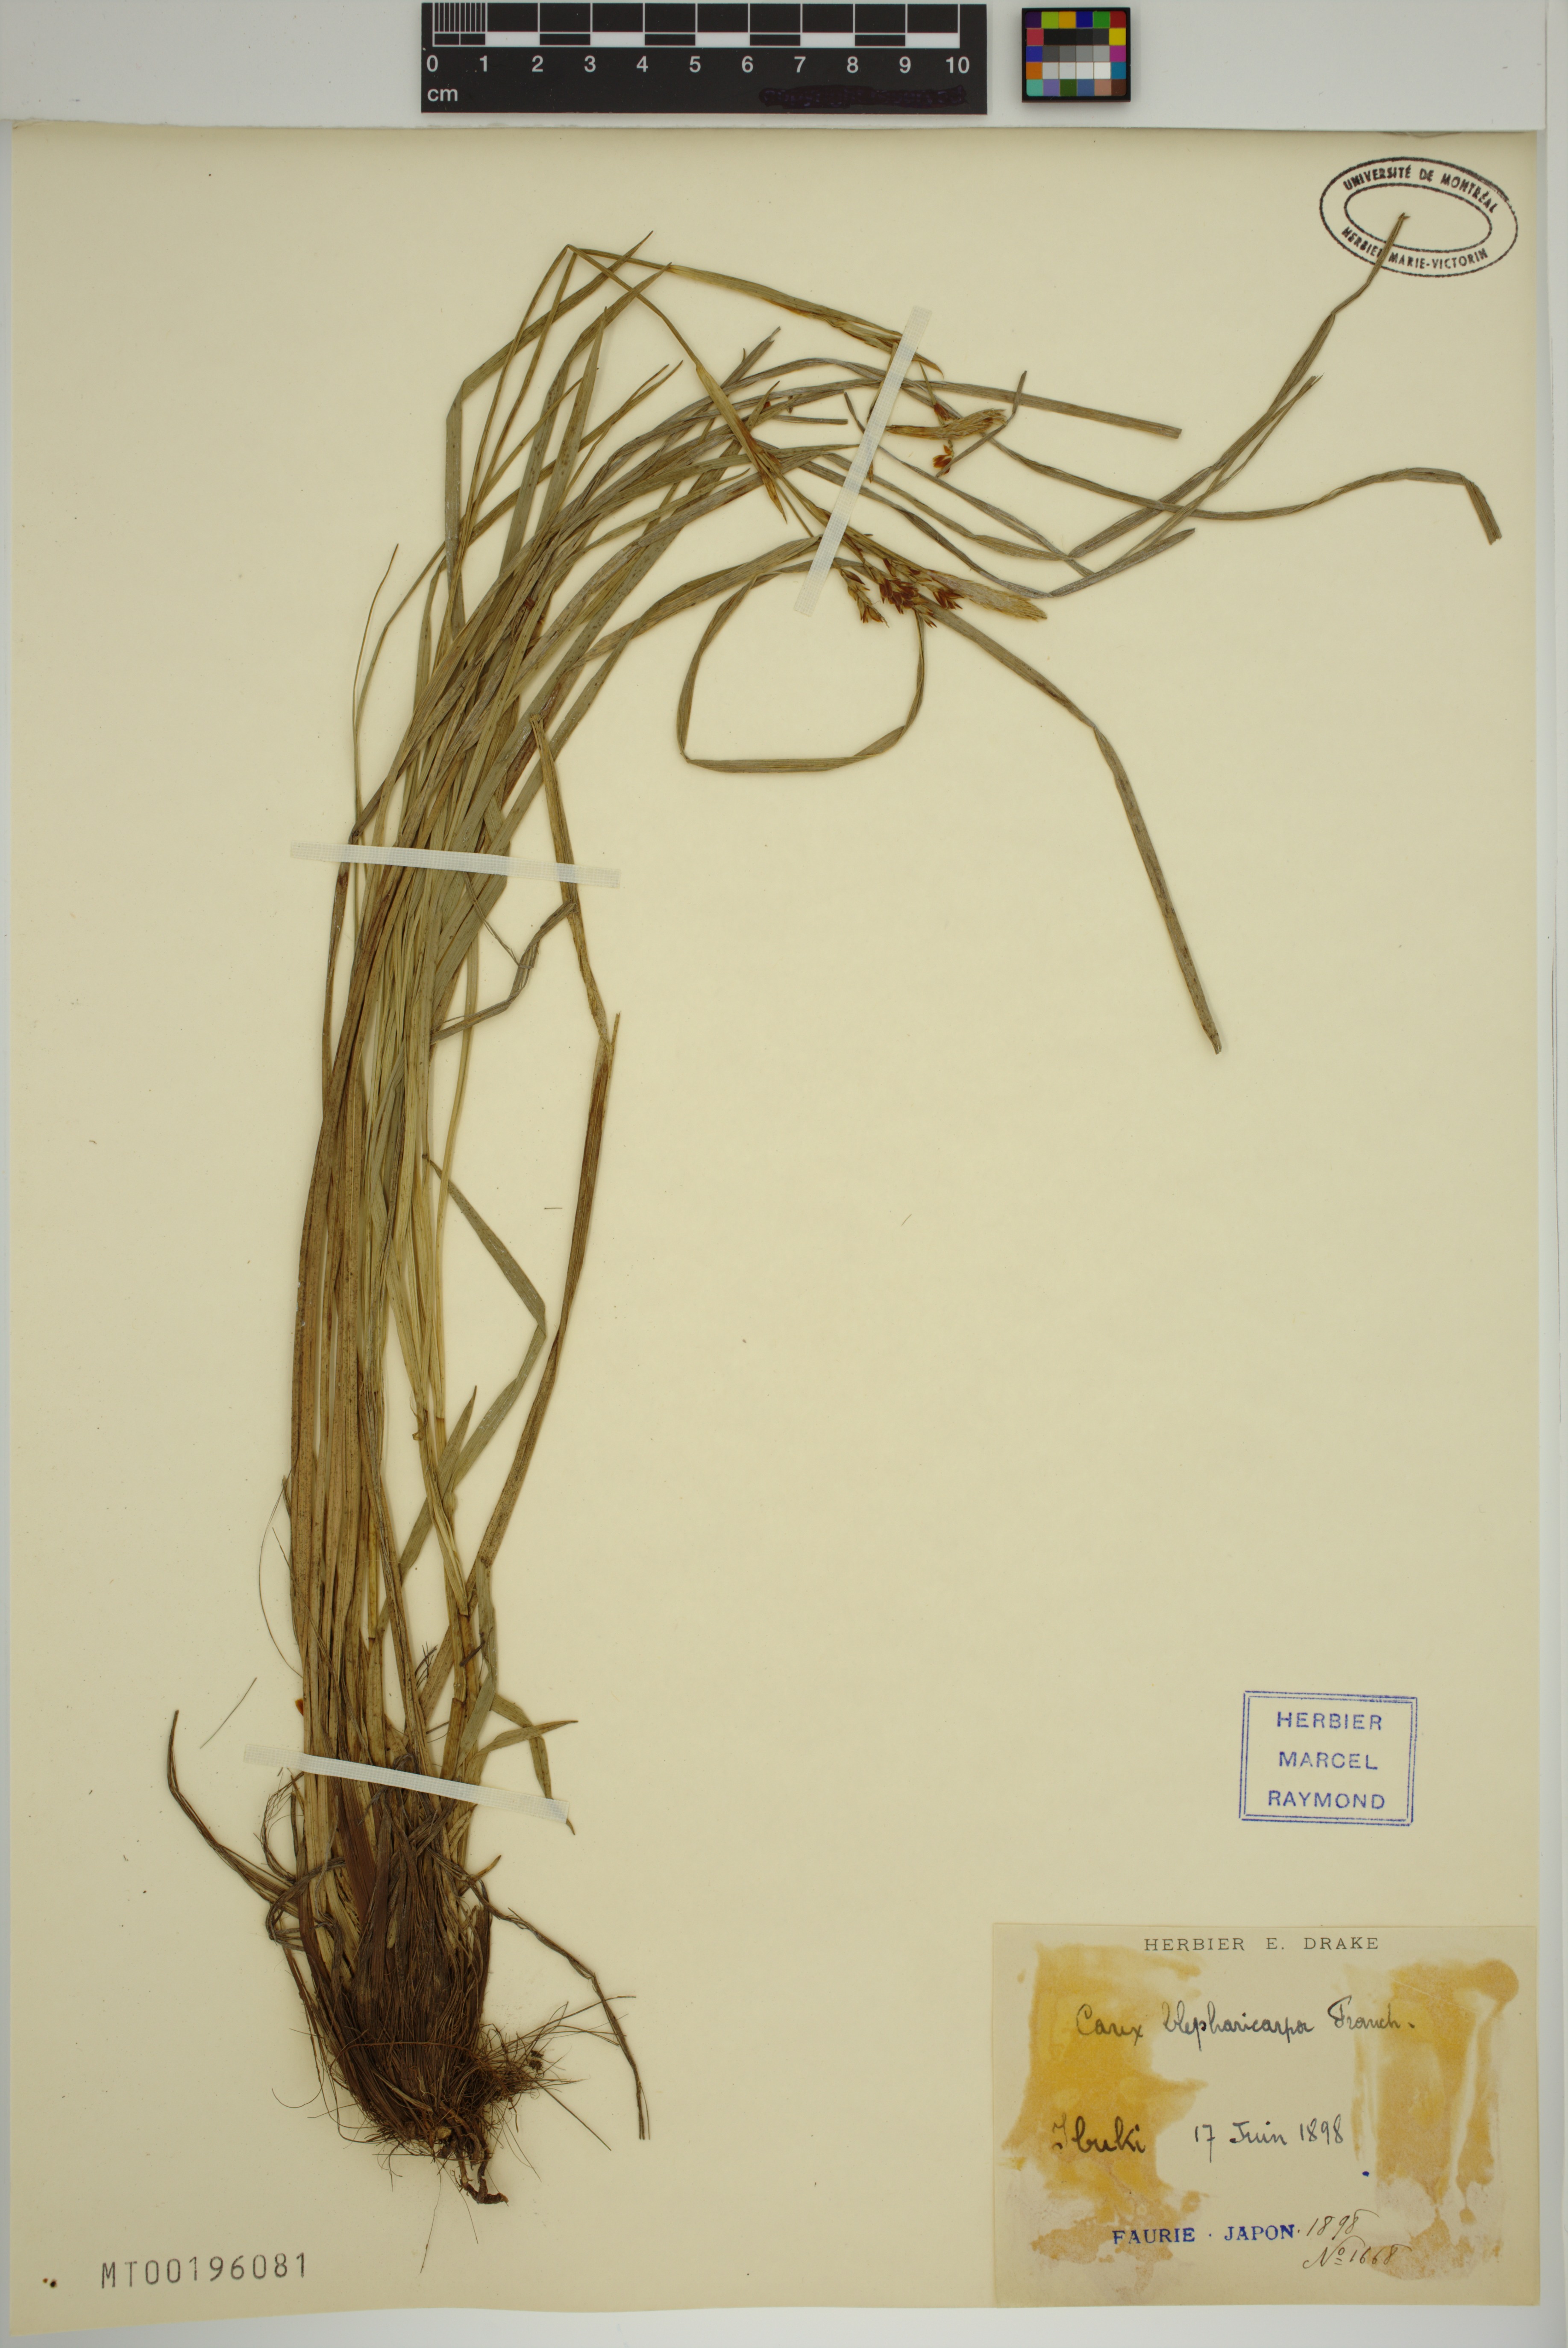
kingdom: Plantae
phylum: Tracheophyta
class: Liliopsida
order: Poales
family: Cyperaceae
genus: Carex
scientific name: Carex blepharicarpa
